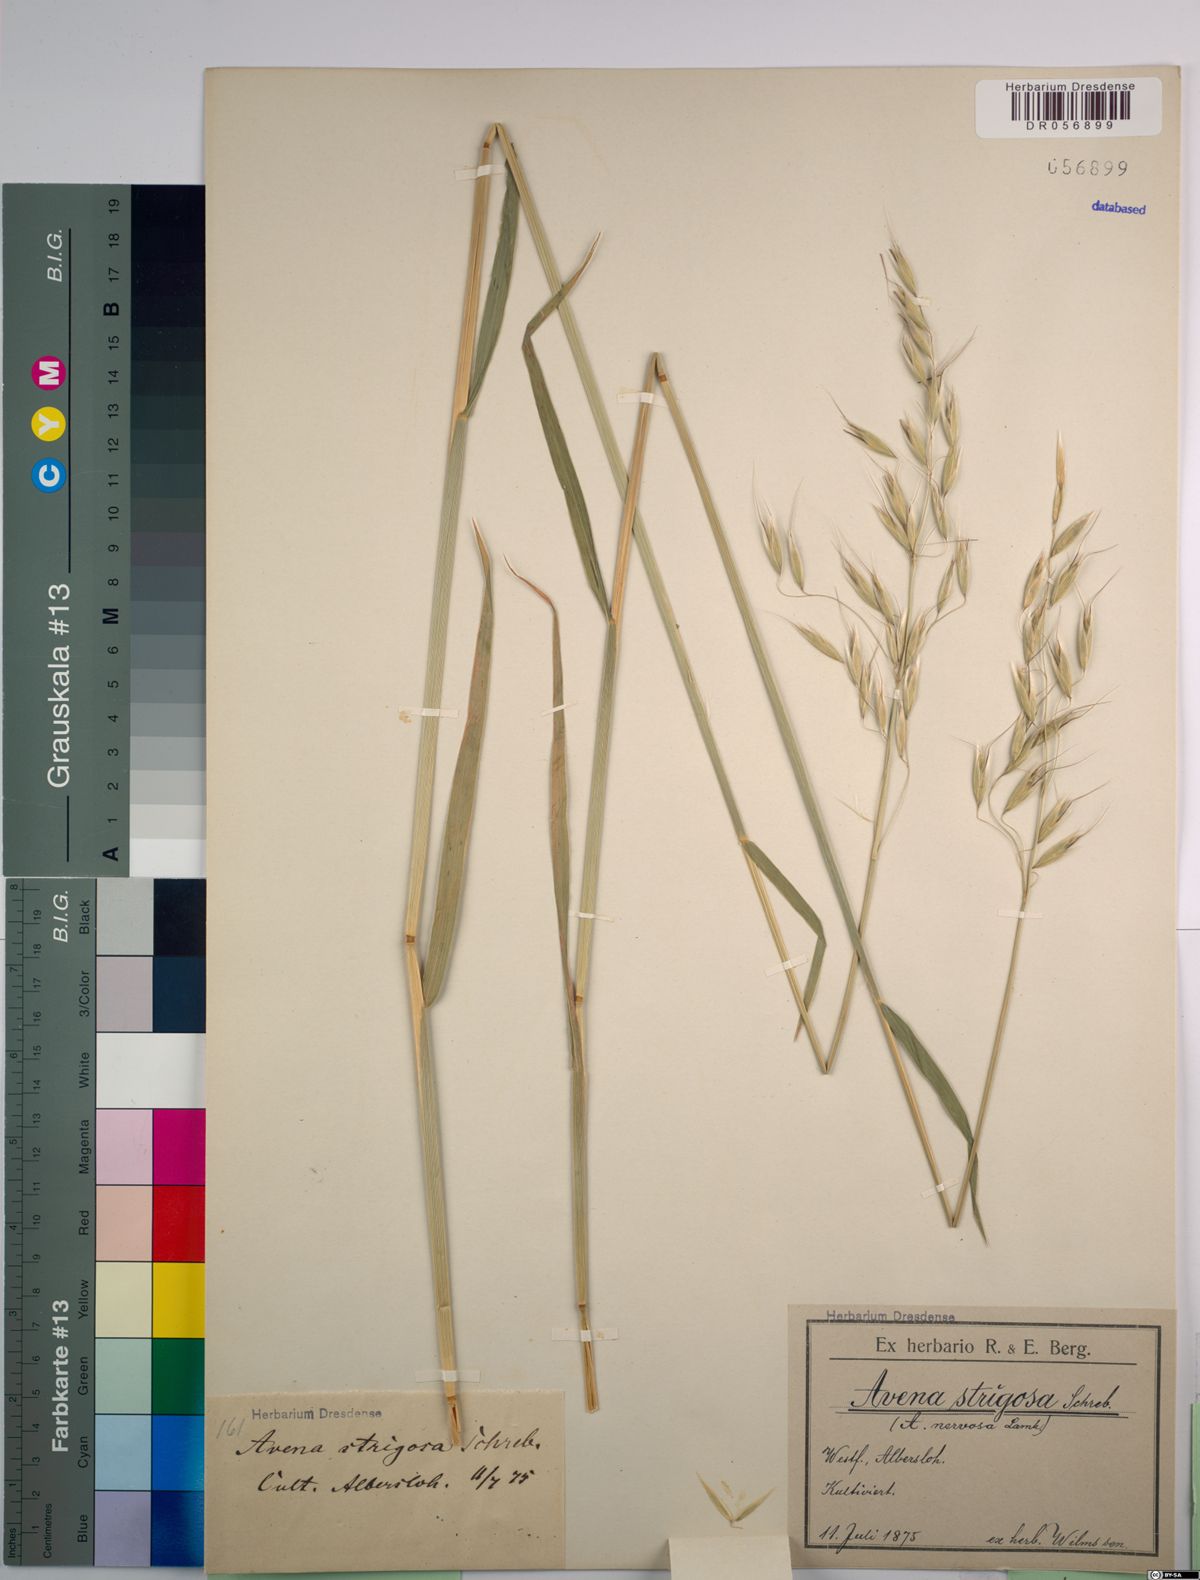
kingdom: Plantae
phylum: Tracheophyta
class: Liliopsida
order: Poales
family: Poaceae
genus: Avena
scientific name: Avena strigosa
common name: Bristle oat
